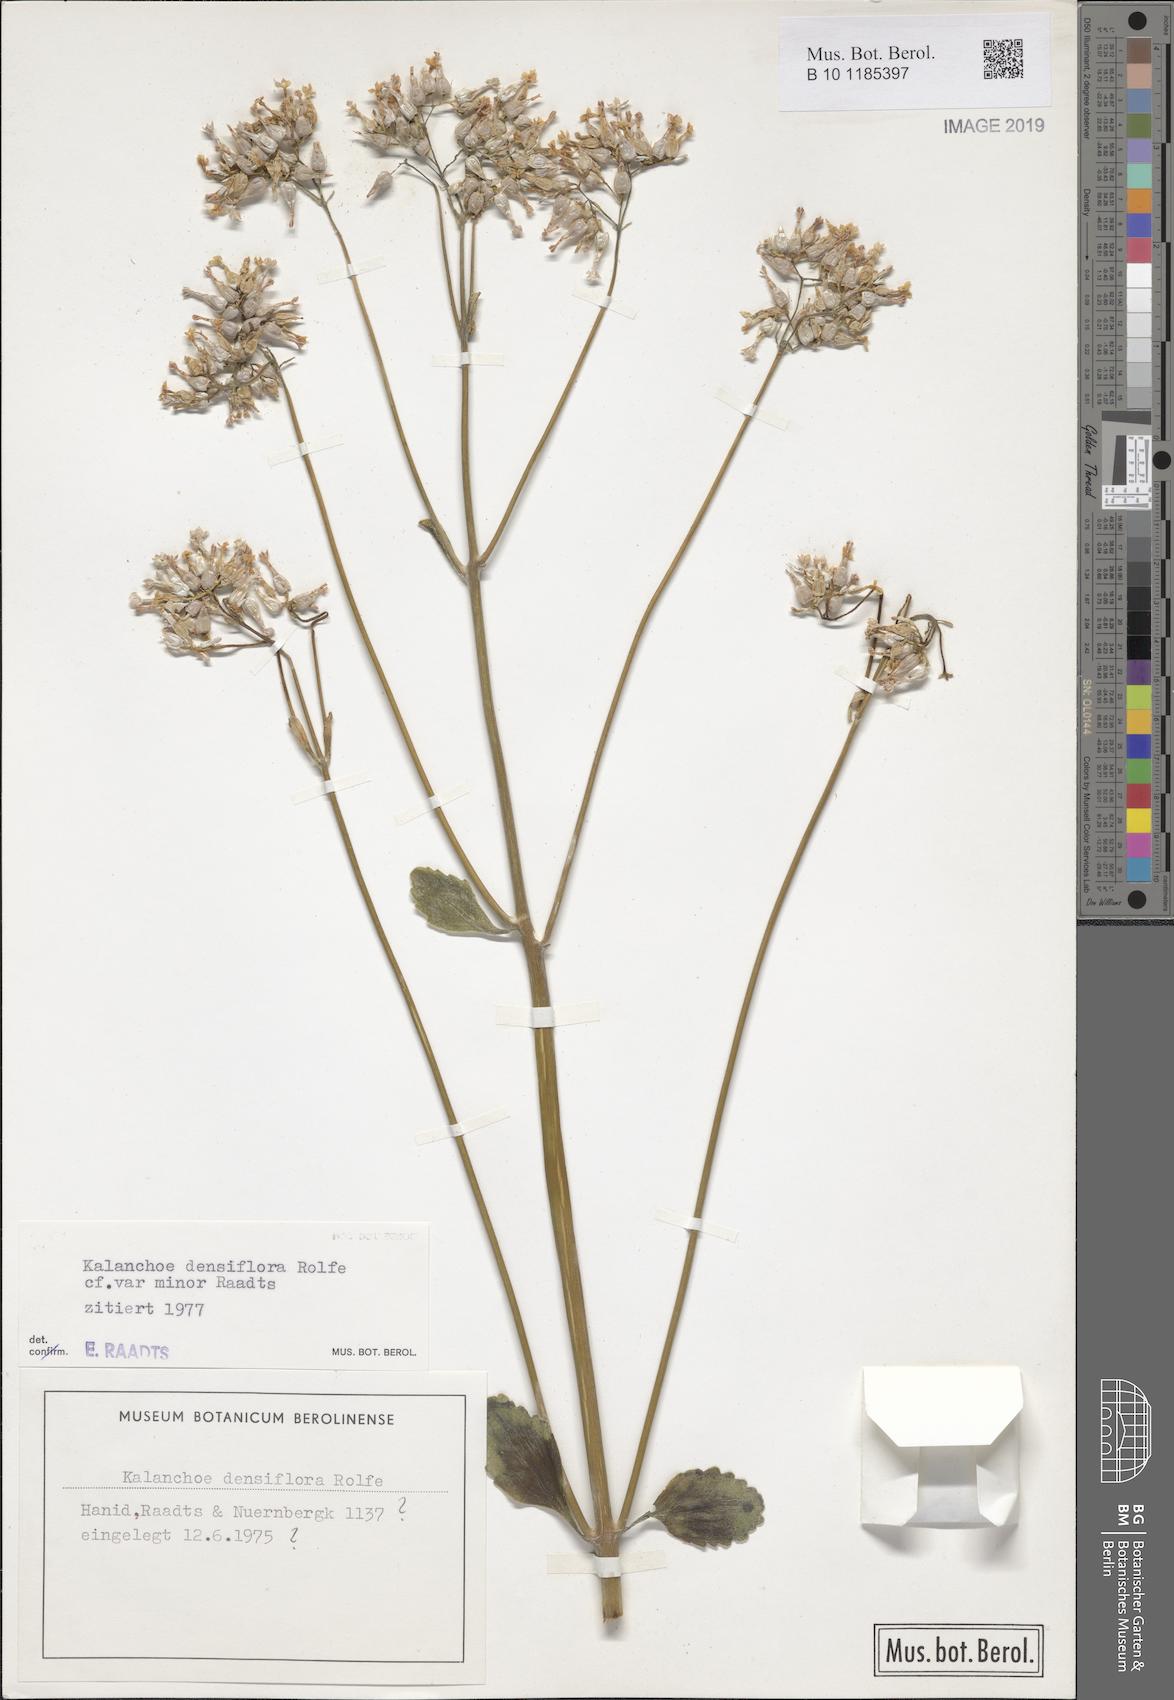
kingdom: Plantae
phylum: Tracheophyta
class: Magnoliopsida
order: Saxifragales
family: Crassulaceae
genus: Kalanchoe
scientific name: Kalanchoe densiflora
